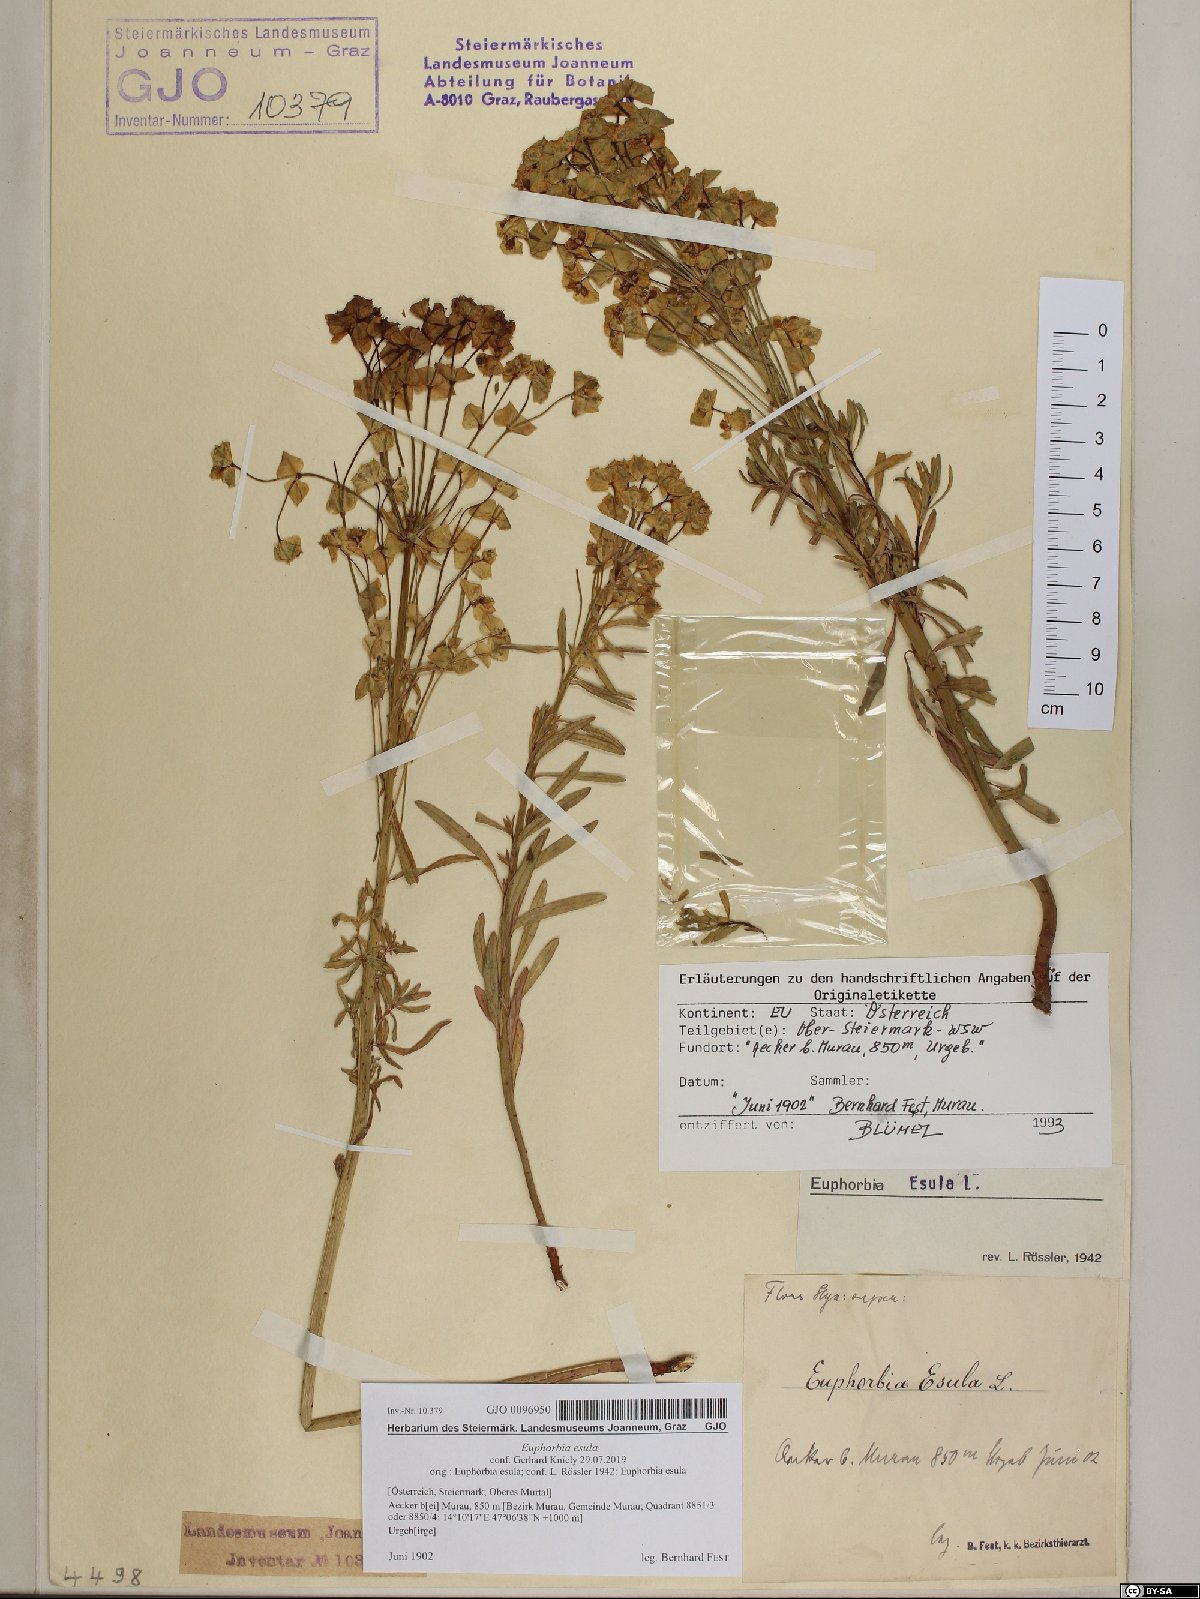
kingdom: Plantae
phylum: Tracheophyta
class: Magnoliopsida
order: Malpighiales
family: Euphorbiaceae
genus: Euphorbia
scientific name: Euphorbia esula
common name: Leafy spurge
